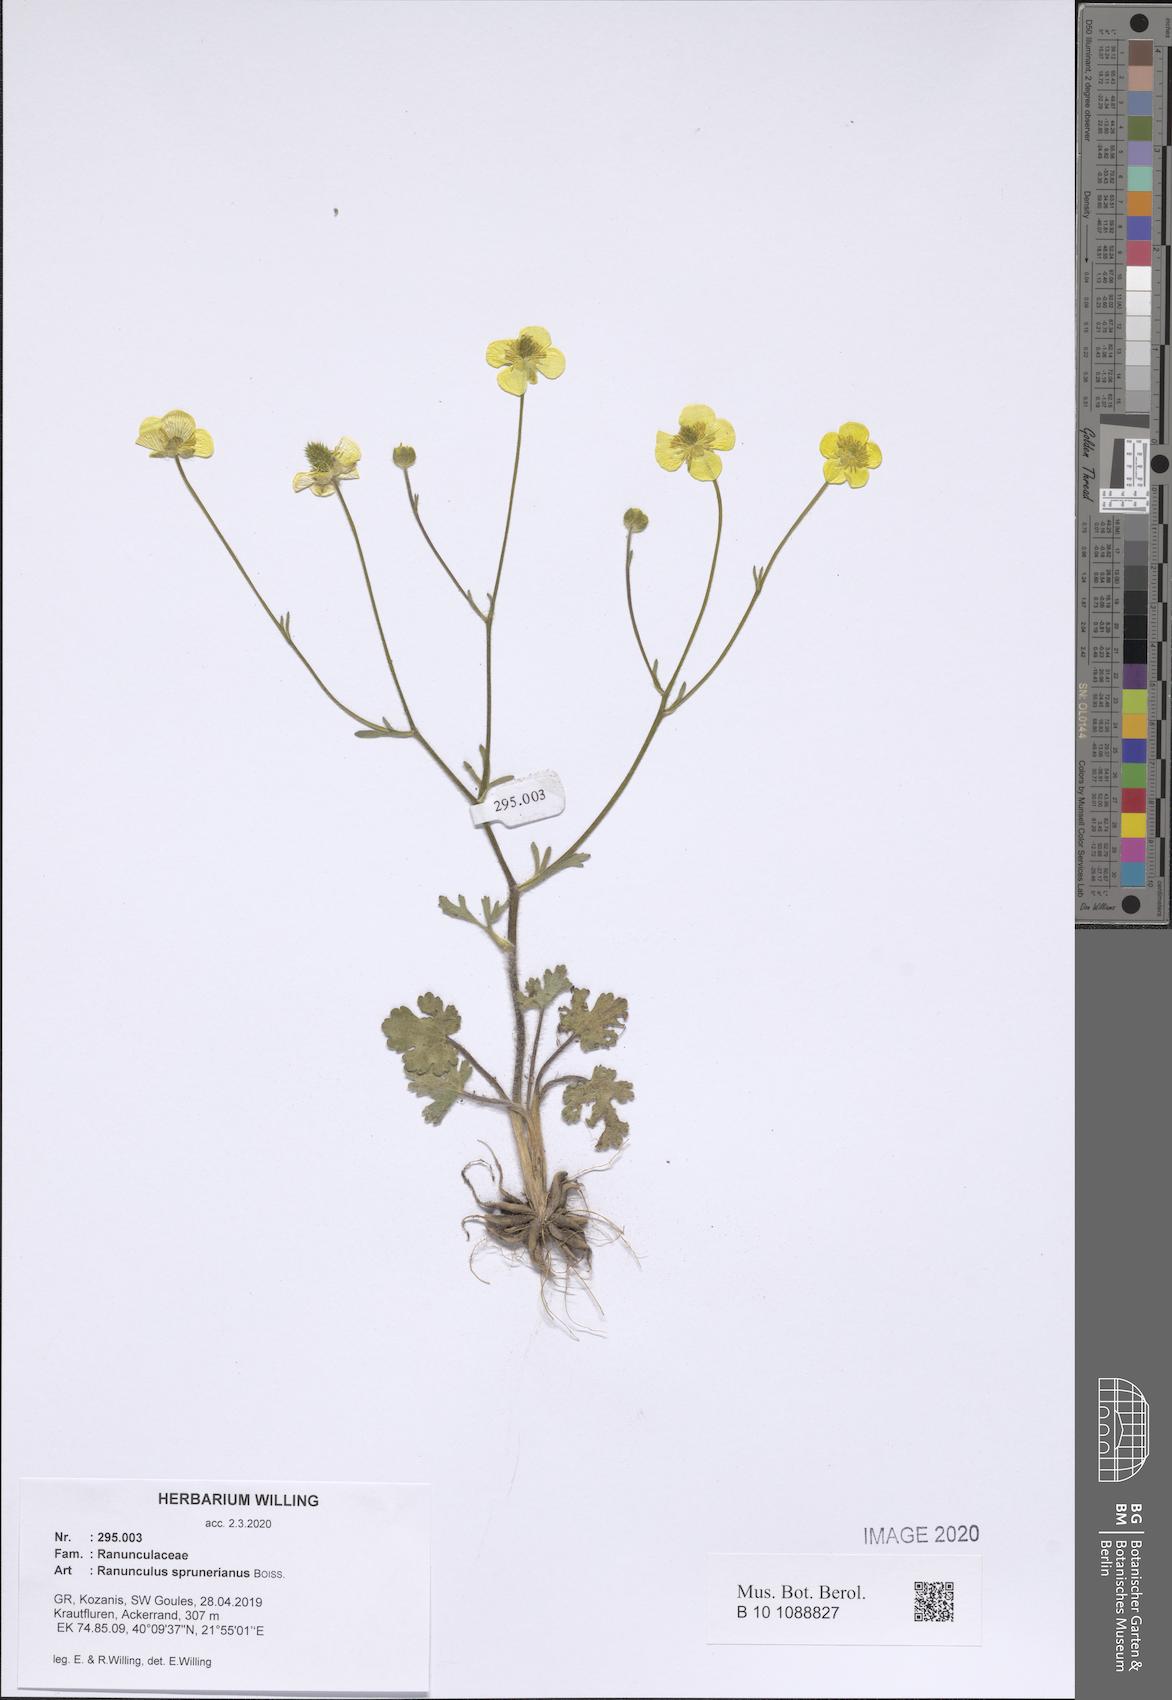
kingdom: Plantae
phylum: Tracheophyta
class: Magnoliopsida
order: Ranunculales
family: Ranunculaceae
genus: Ranunculus
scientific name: Ranunculus sprunerianus
